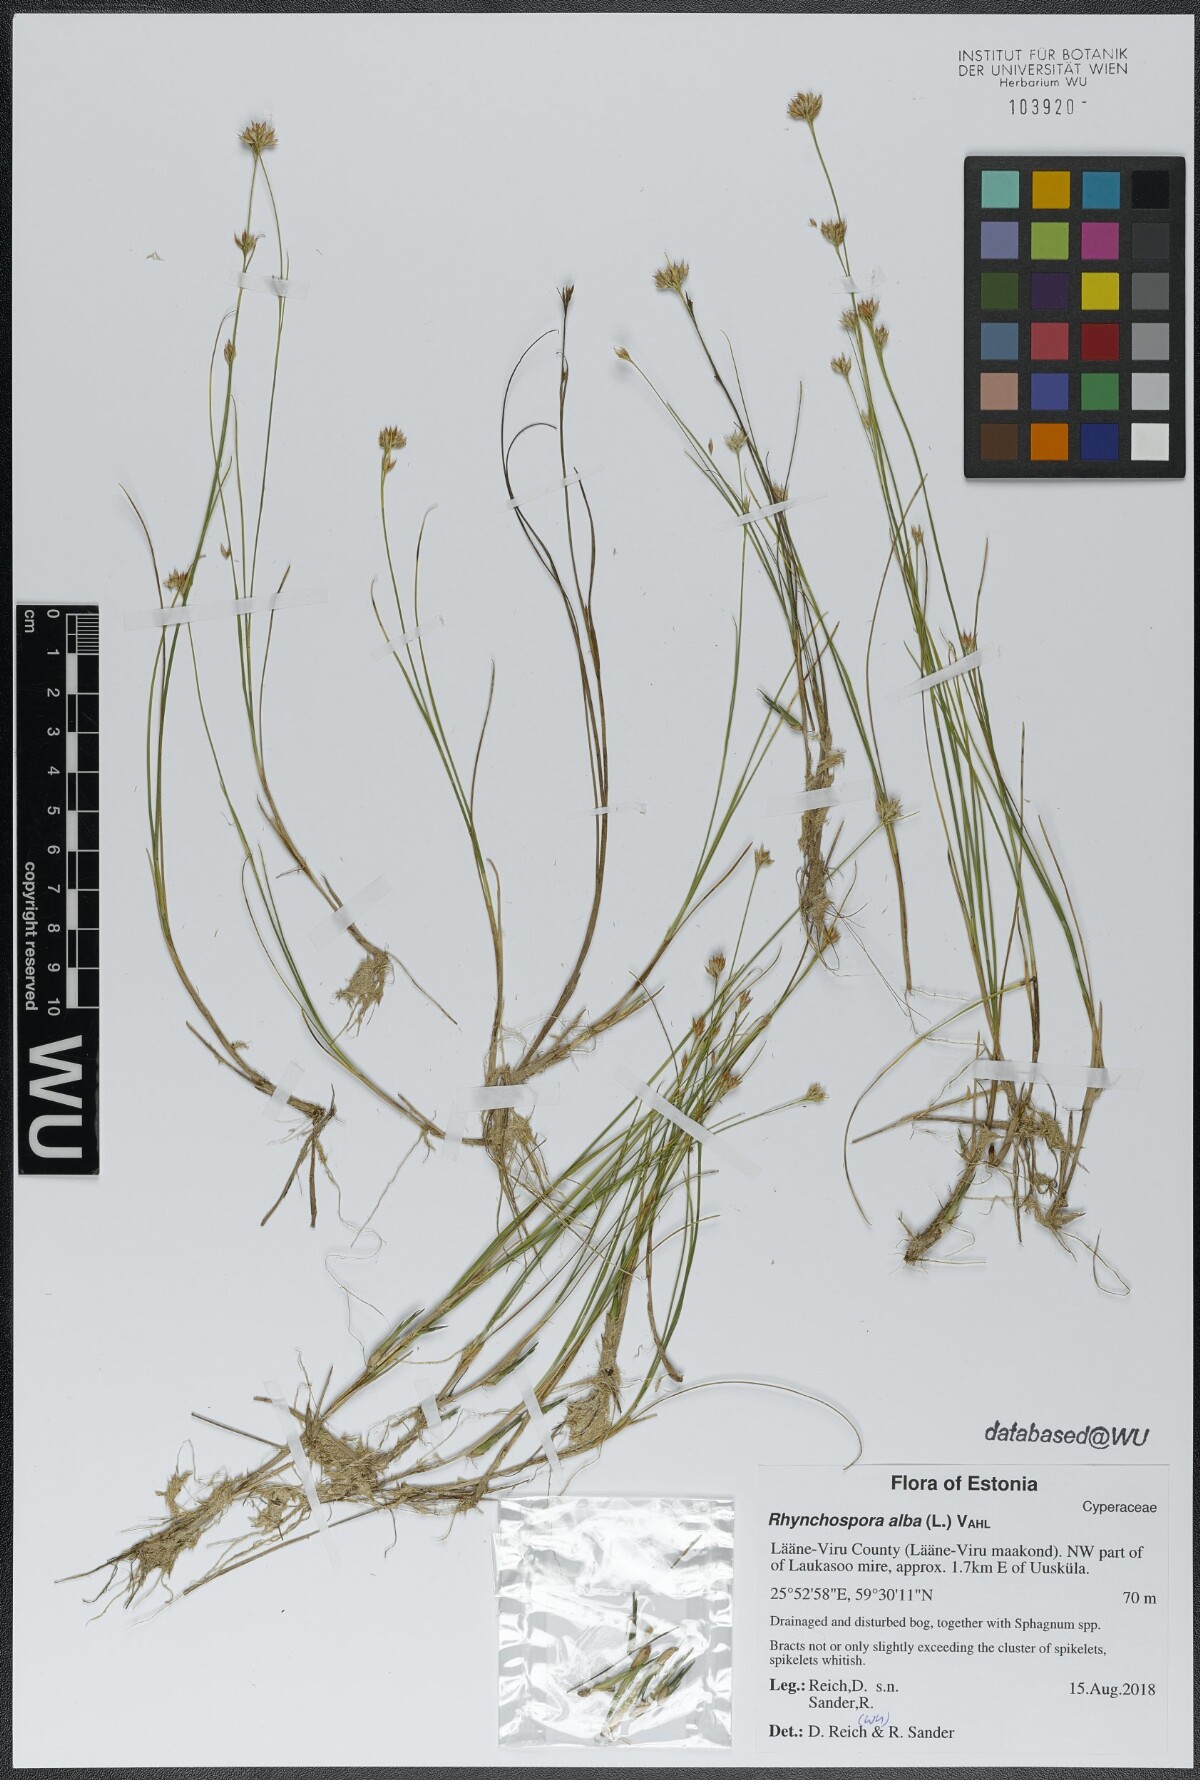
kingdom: Plantae
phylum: Tracheophyta
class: Liliopsida
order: Poales
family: Cyperaceae
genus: Rhynchospora
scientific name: Rhynchospora alba
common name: White beak-sedge
